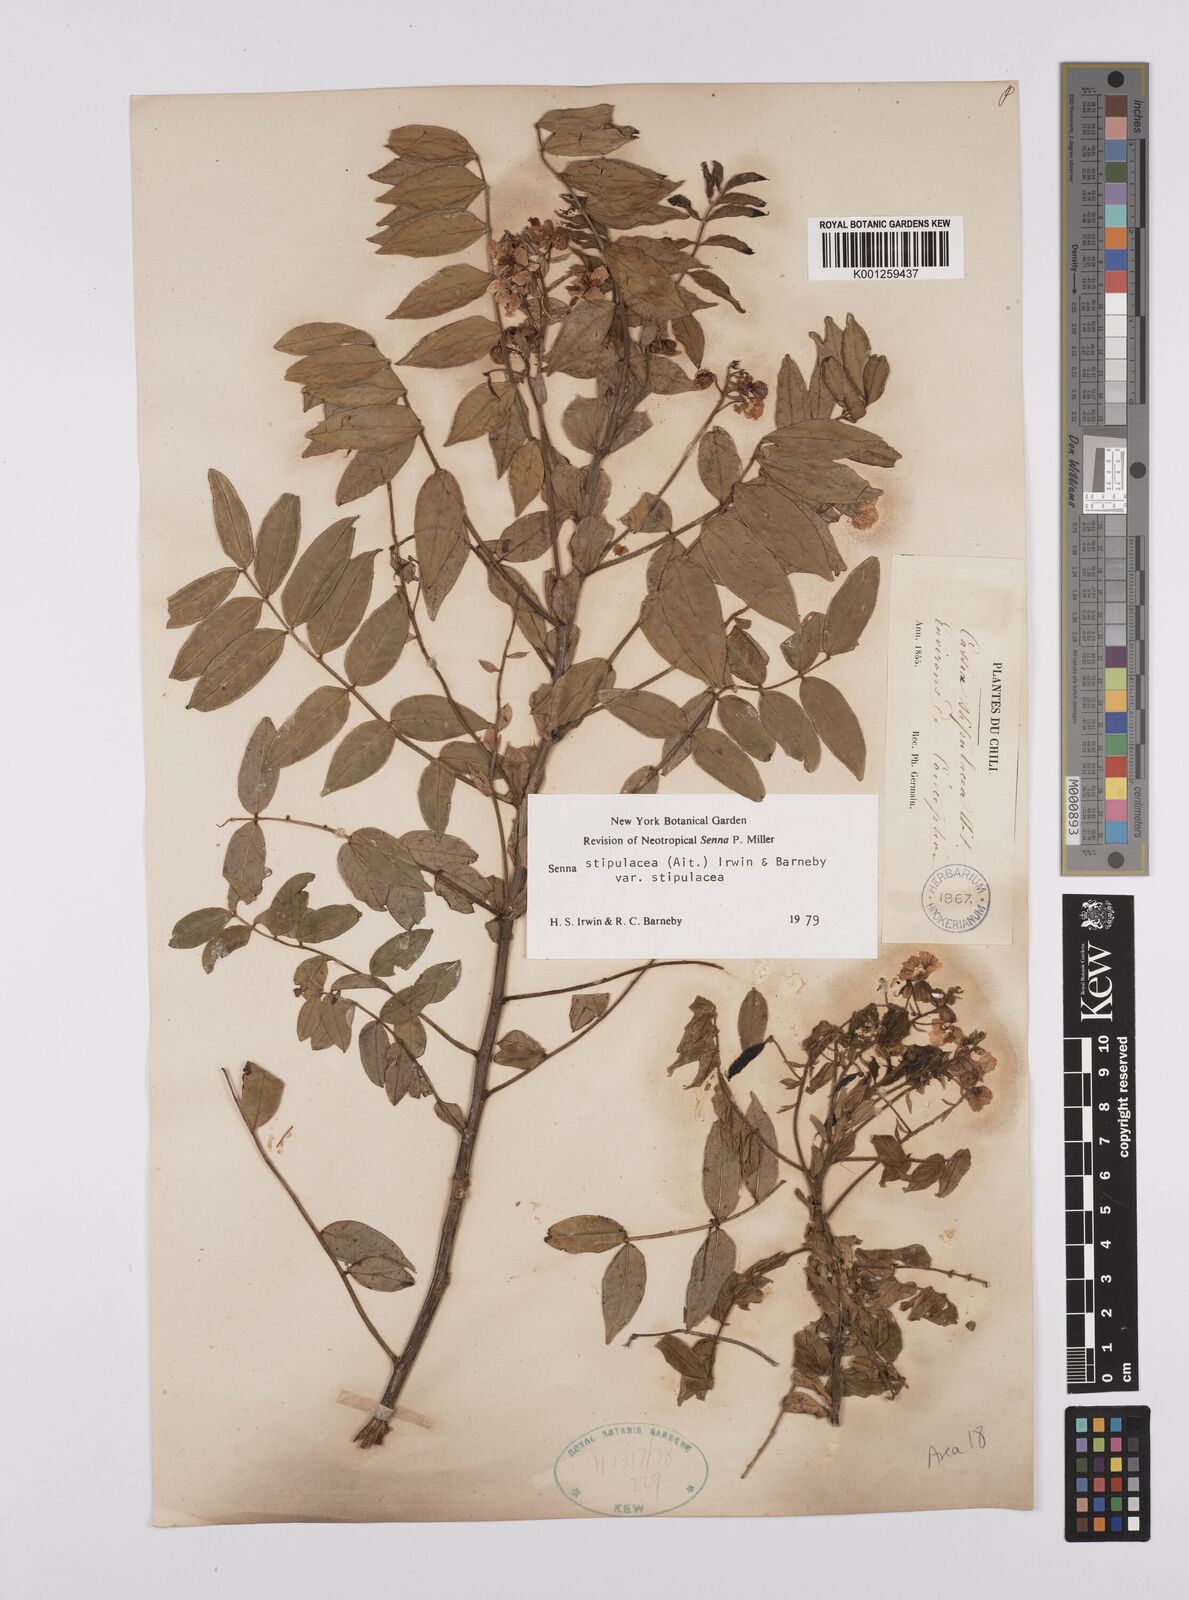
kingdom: Plantae
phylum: Tracheophyta
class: Magnoliopsida
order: Fabales
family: Fabaceae
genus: Senna
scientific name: Senna stipulacea
